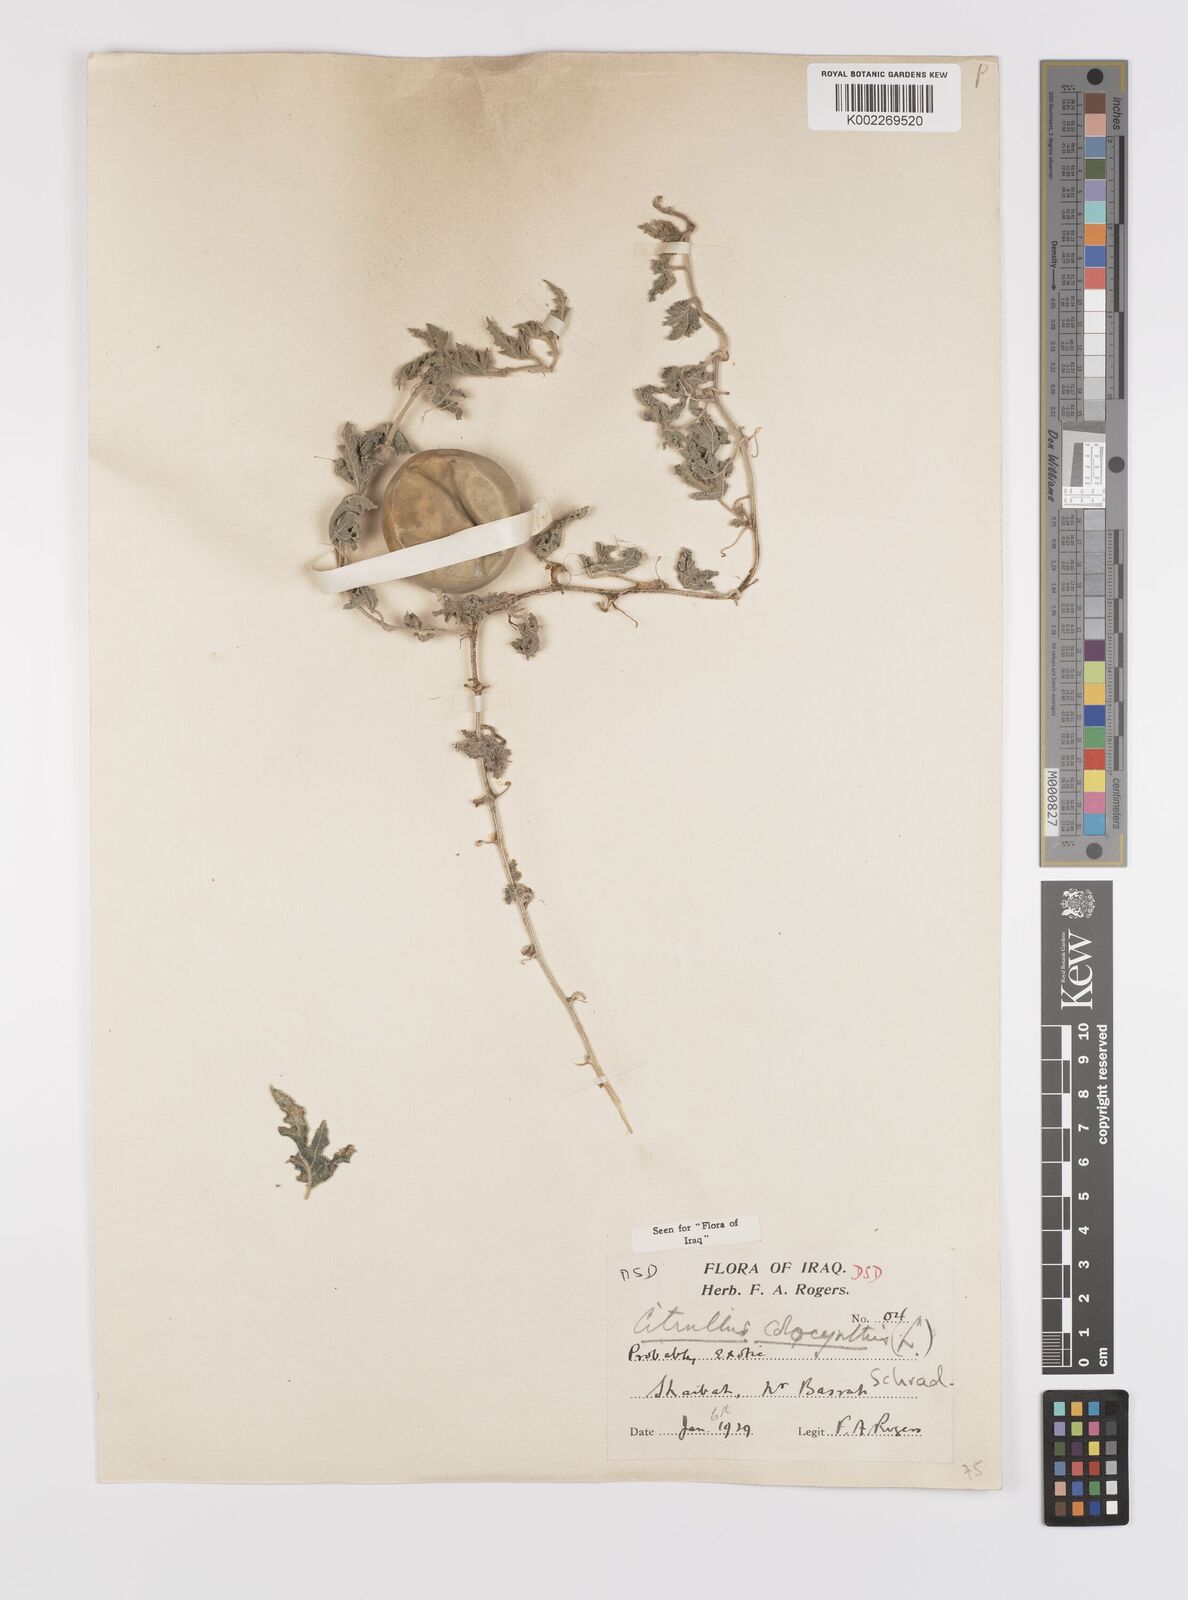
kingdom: Plantae
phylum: Tracheophyta
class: Magnoliopsida
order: Cucurbitales
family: Cucurbitaceae
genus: Citrullus
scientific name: Citrullus colocynthis
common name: Colocynth
